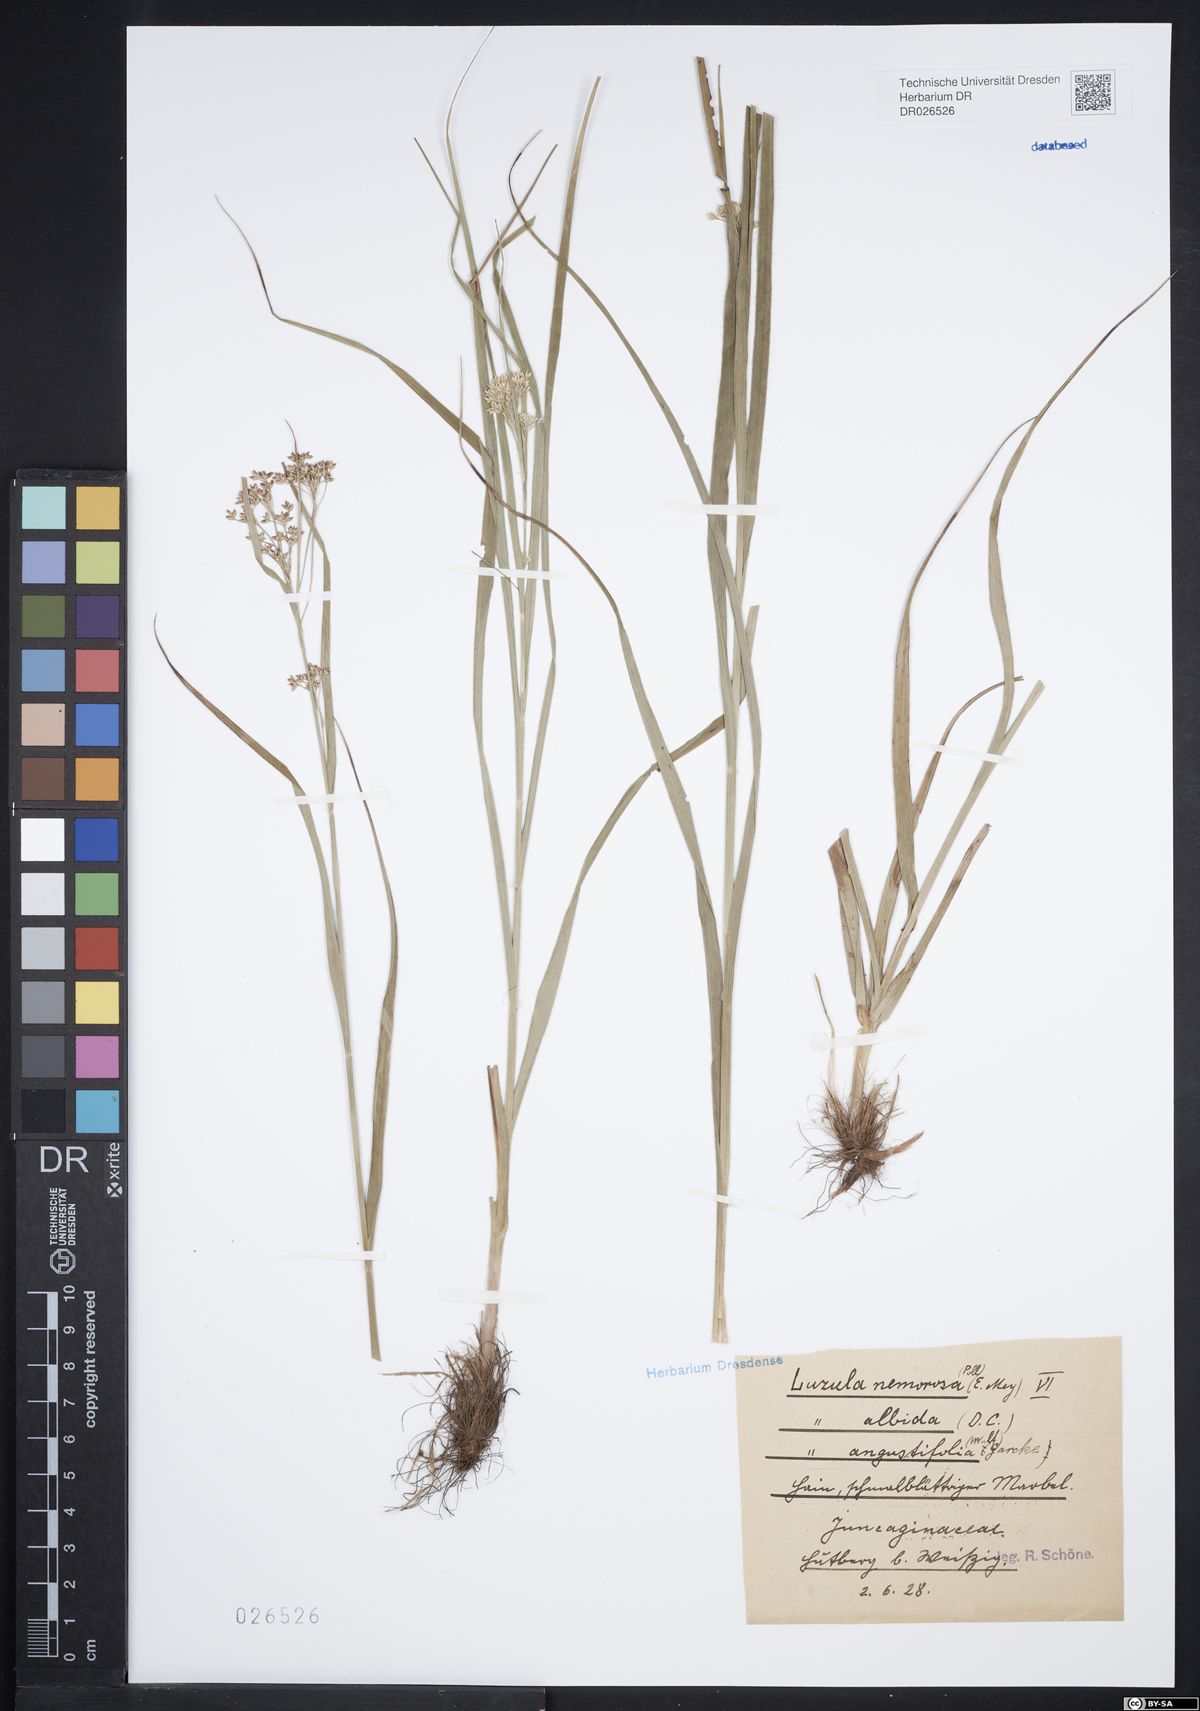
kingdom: Plantae
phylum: Tracheophyta
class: Liliopsida
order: Poales
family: Juncaceae
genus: Luzula
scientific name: Luzula luzuloides
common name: White wood-rush
